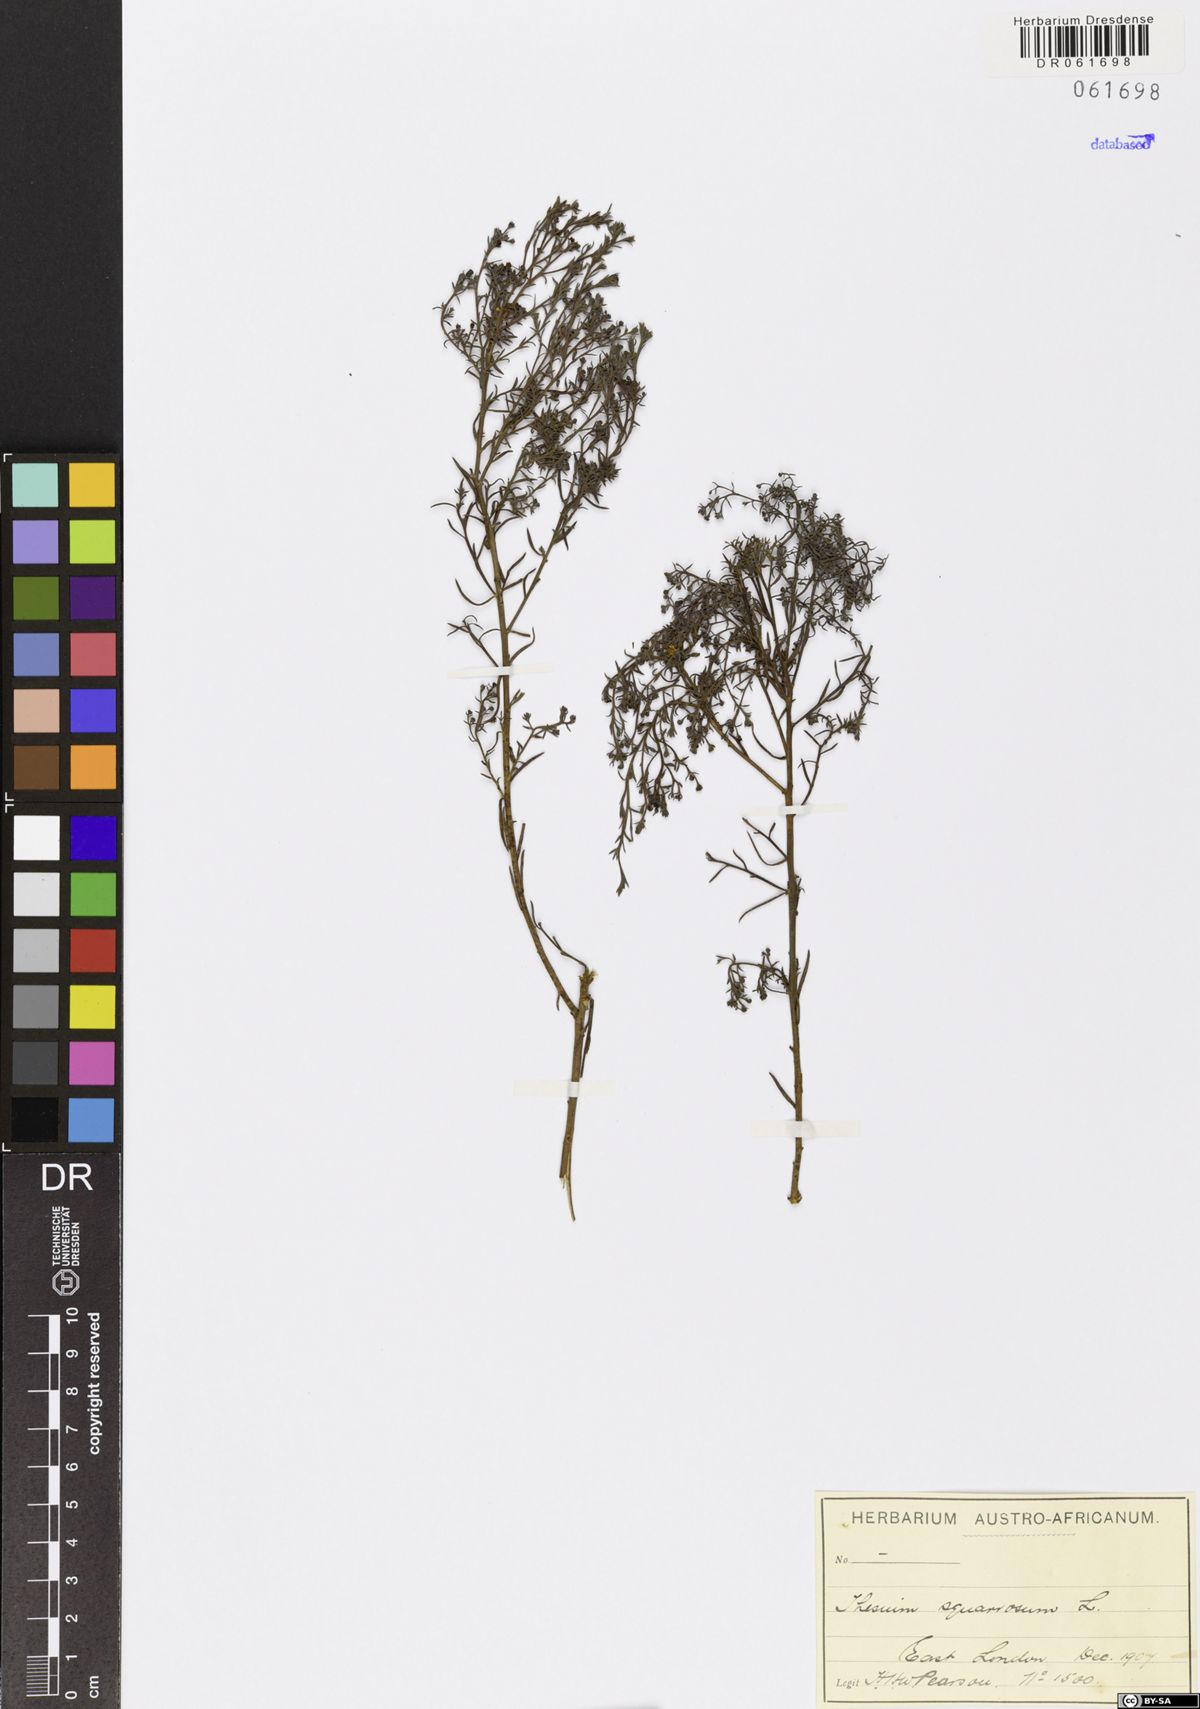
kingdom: Plantae
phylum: Tracheophyta
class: Magnoliopsida
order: Santalales
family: Thesiaceae
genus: Thesium
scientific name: Thesium squarrosum
